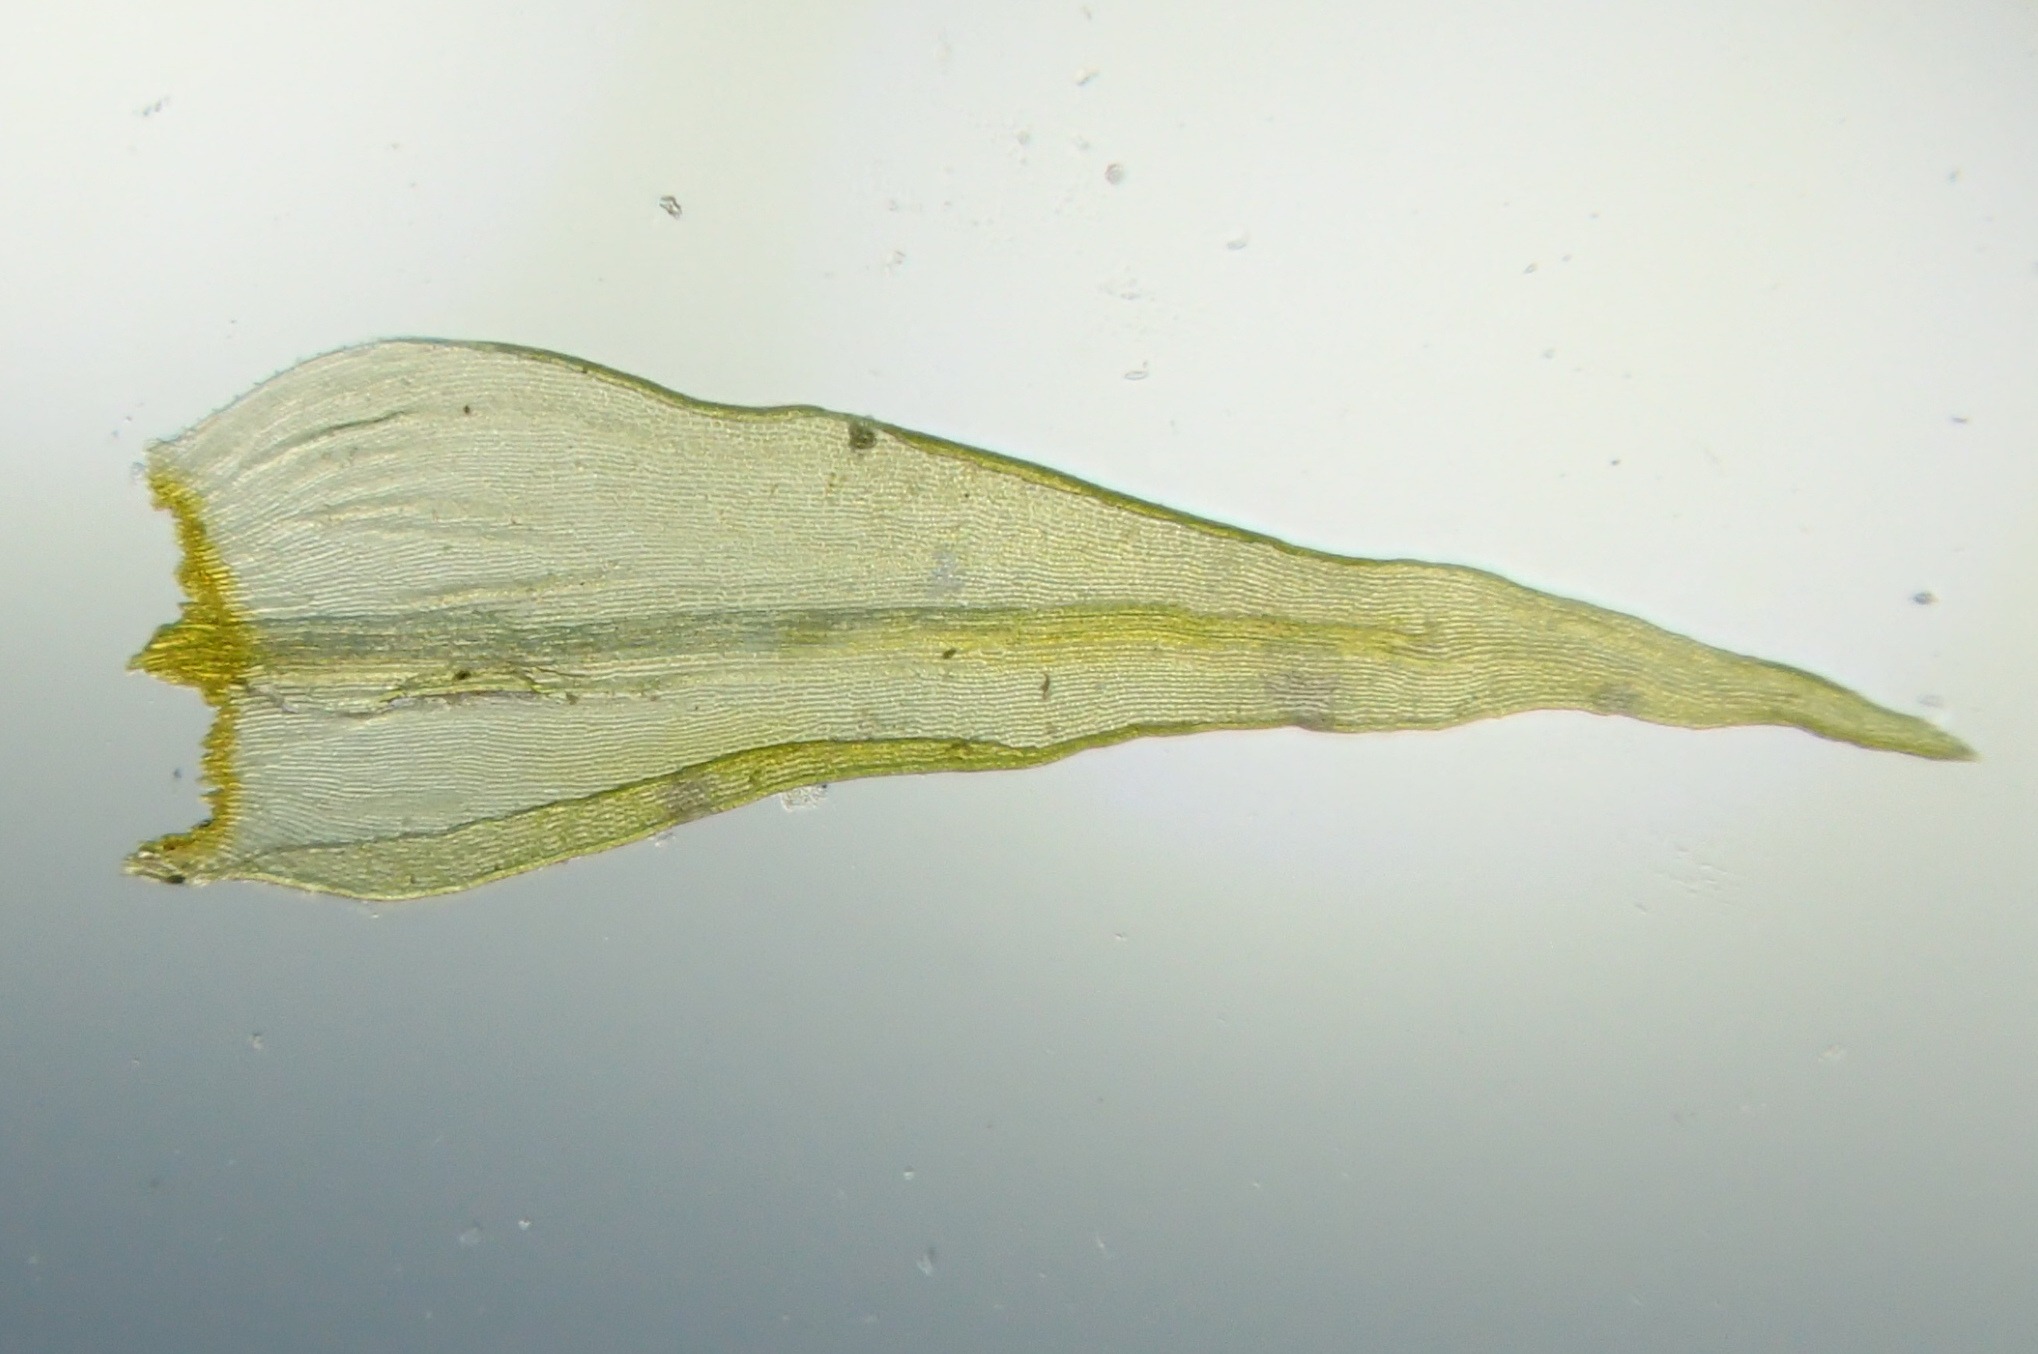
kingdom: Plantae
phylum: Bryophyta
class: Bryopsida
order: Grimmiales
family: Grimmiaceae
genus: Dilutineuron
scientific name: Dilutineuron fasciculare
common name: Knippe-børstemos
